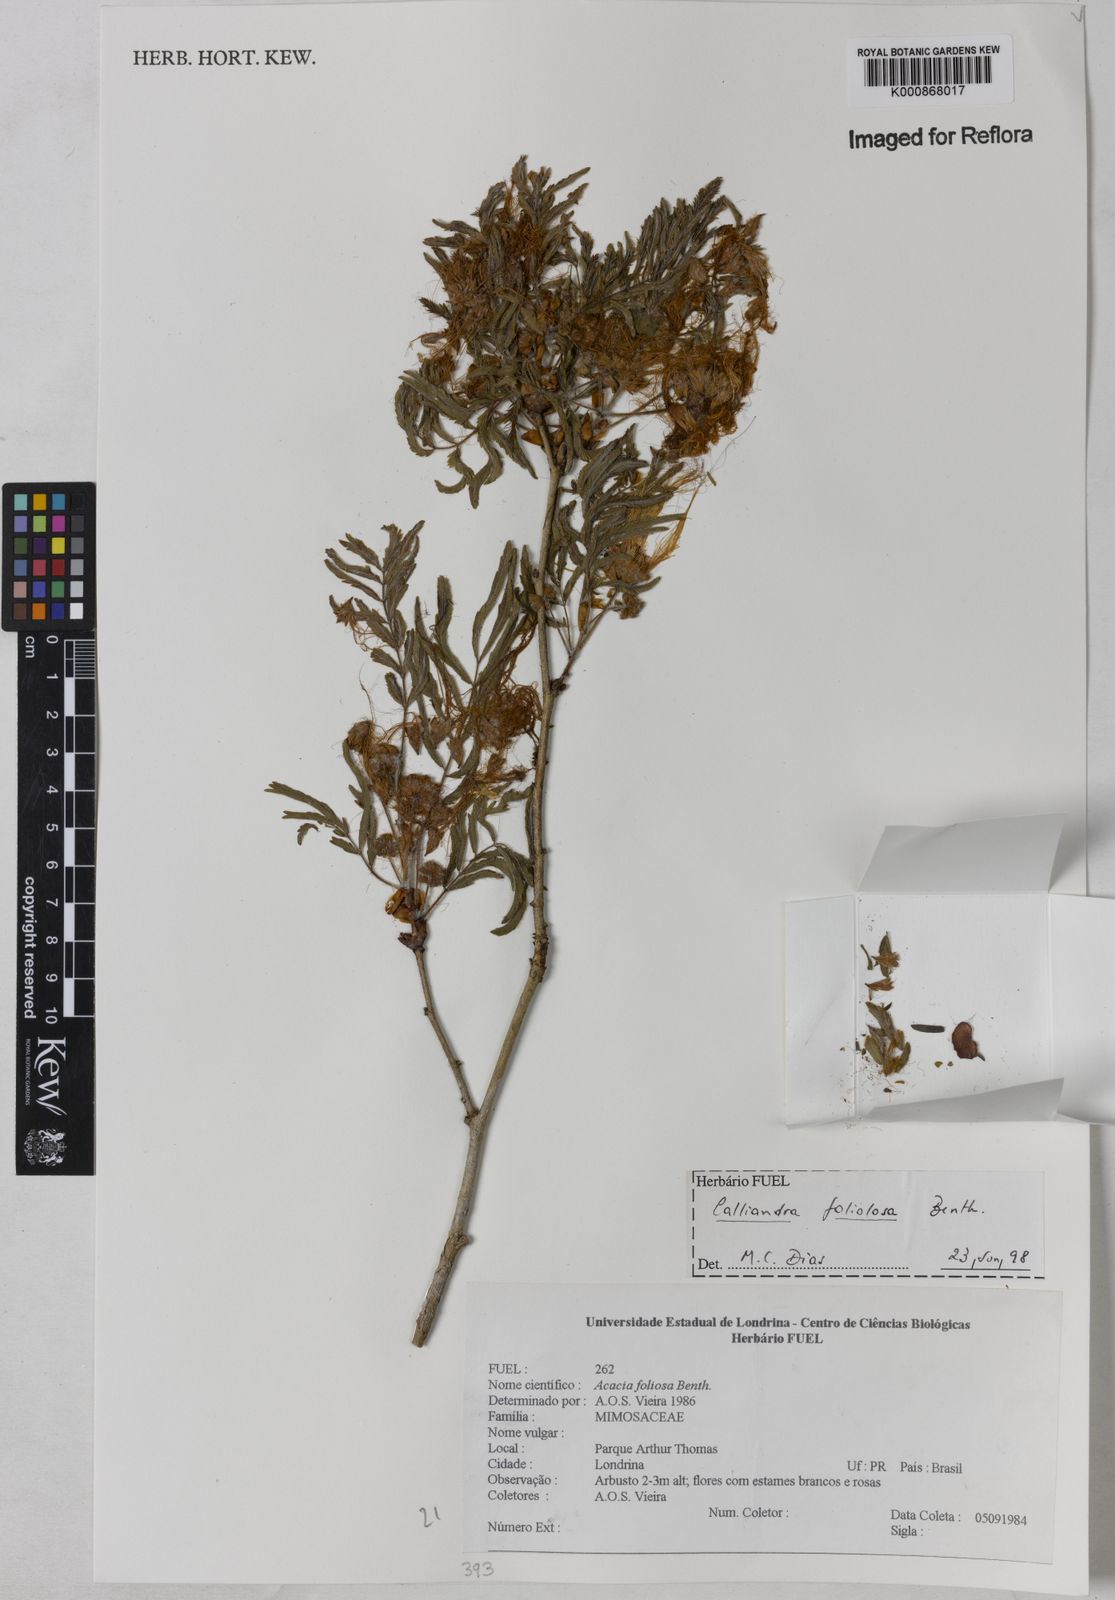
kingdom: Plantae
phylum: Tracheophyta
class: Magnoliopsida
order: Fabales
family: Fabaceae
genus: Calliandra
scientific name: Calliandra foliolosa
